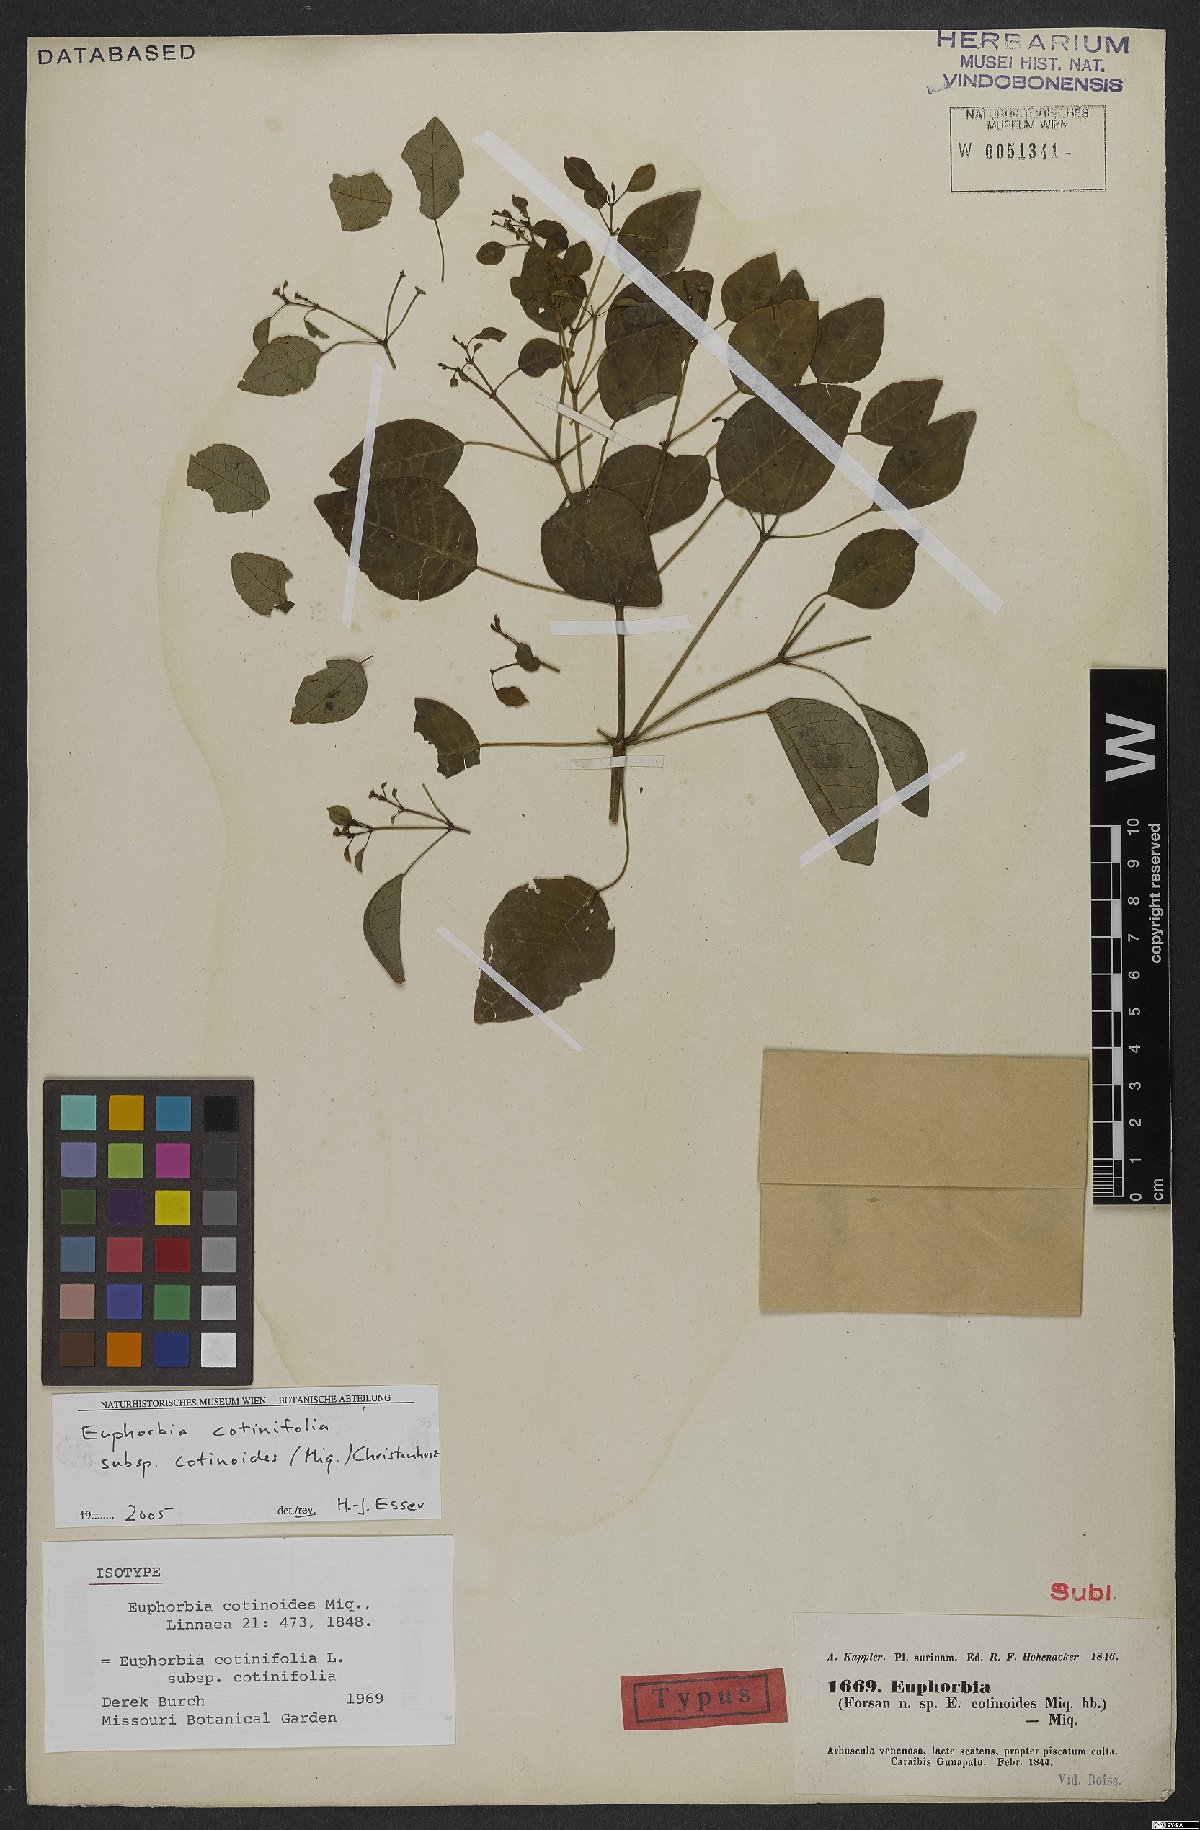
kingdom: Plantae
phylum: Tracheophyta
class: Magnoliopsida
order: Malpighiales
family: Euphorbiaceae
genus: Euphorbia
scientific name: Euphorbia cotinifolia
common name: Tropical smokebush
